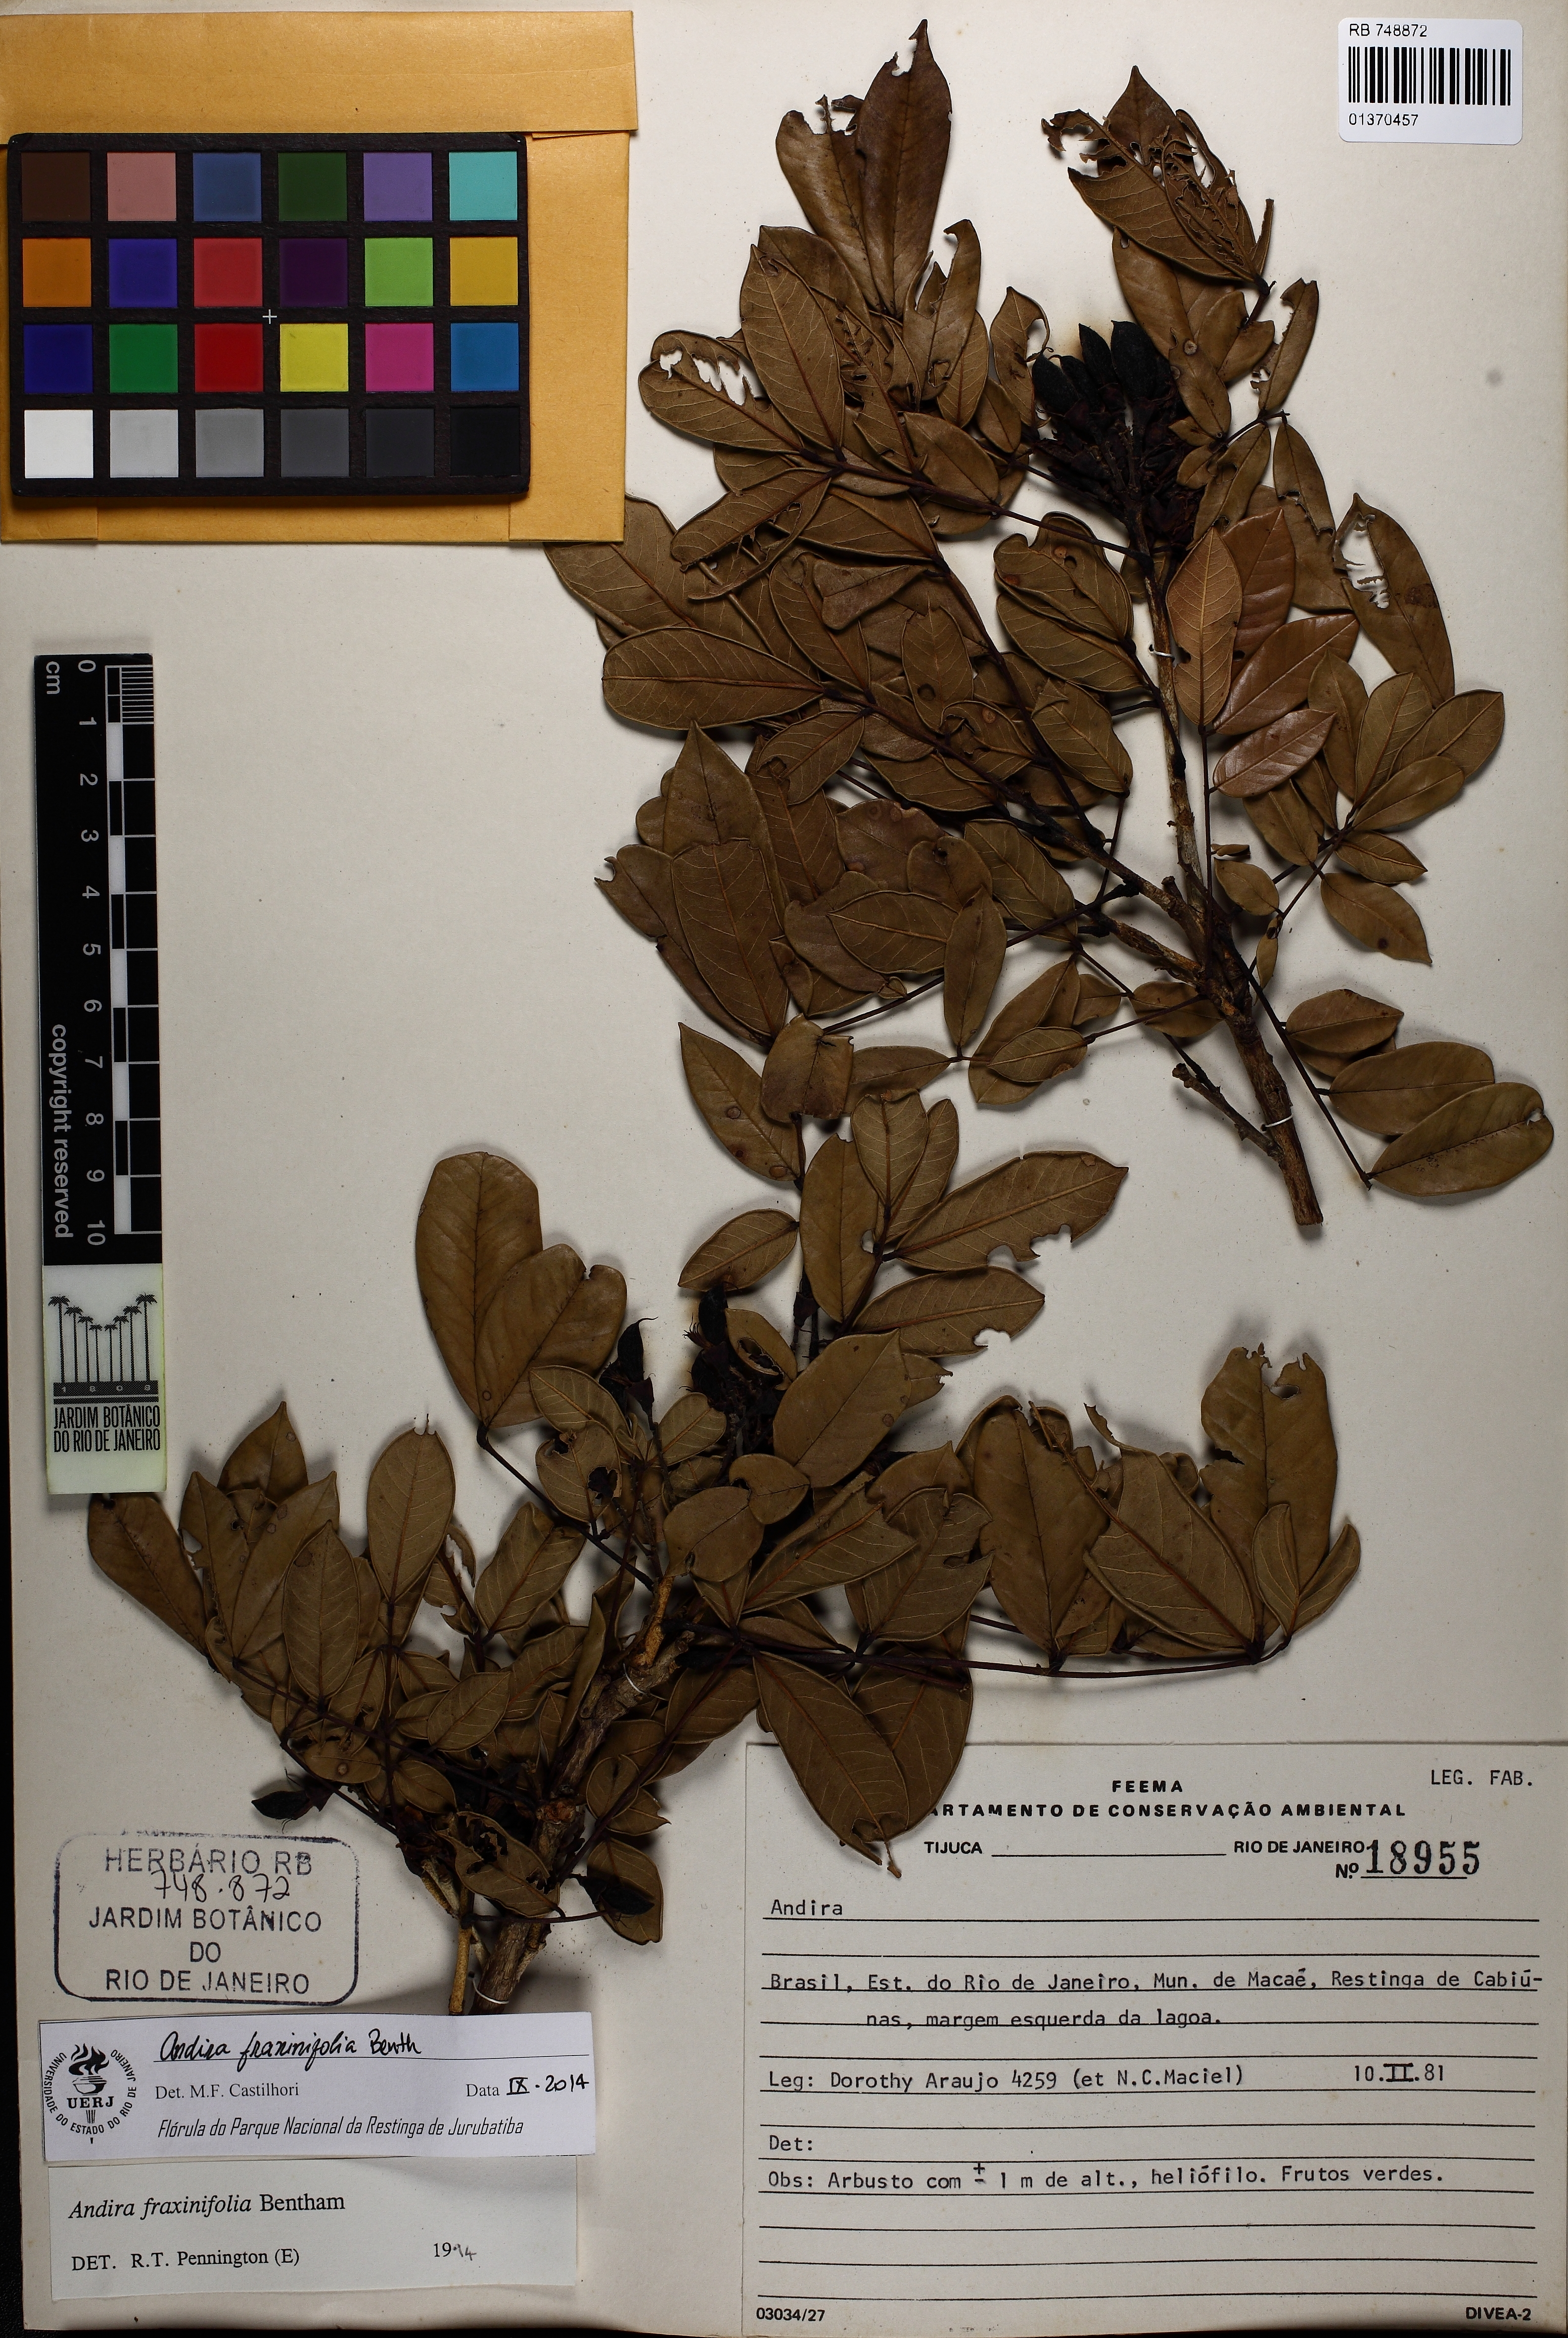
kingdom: Plantae
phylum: Tracheophyta
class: Magnoliopsida
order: Fabales
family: Fabaceae
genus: Andira
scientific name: Andira fraxinifolia
